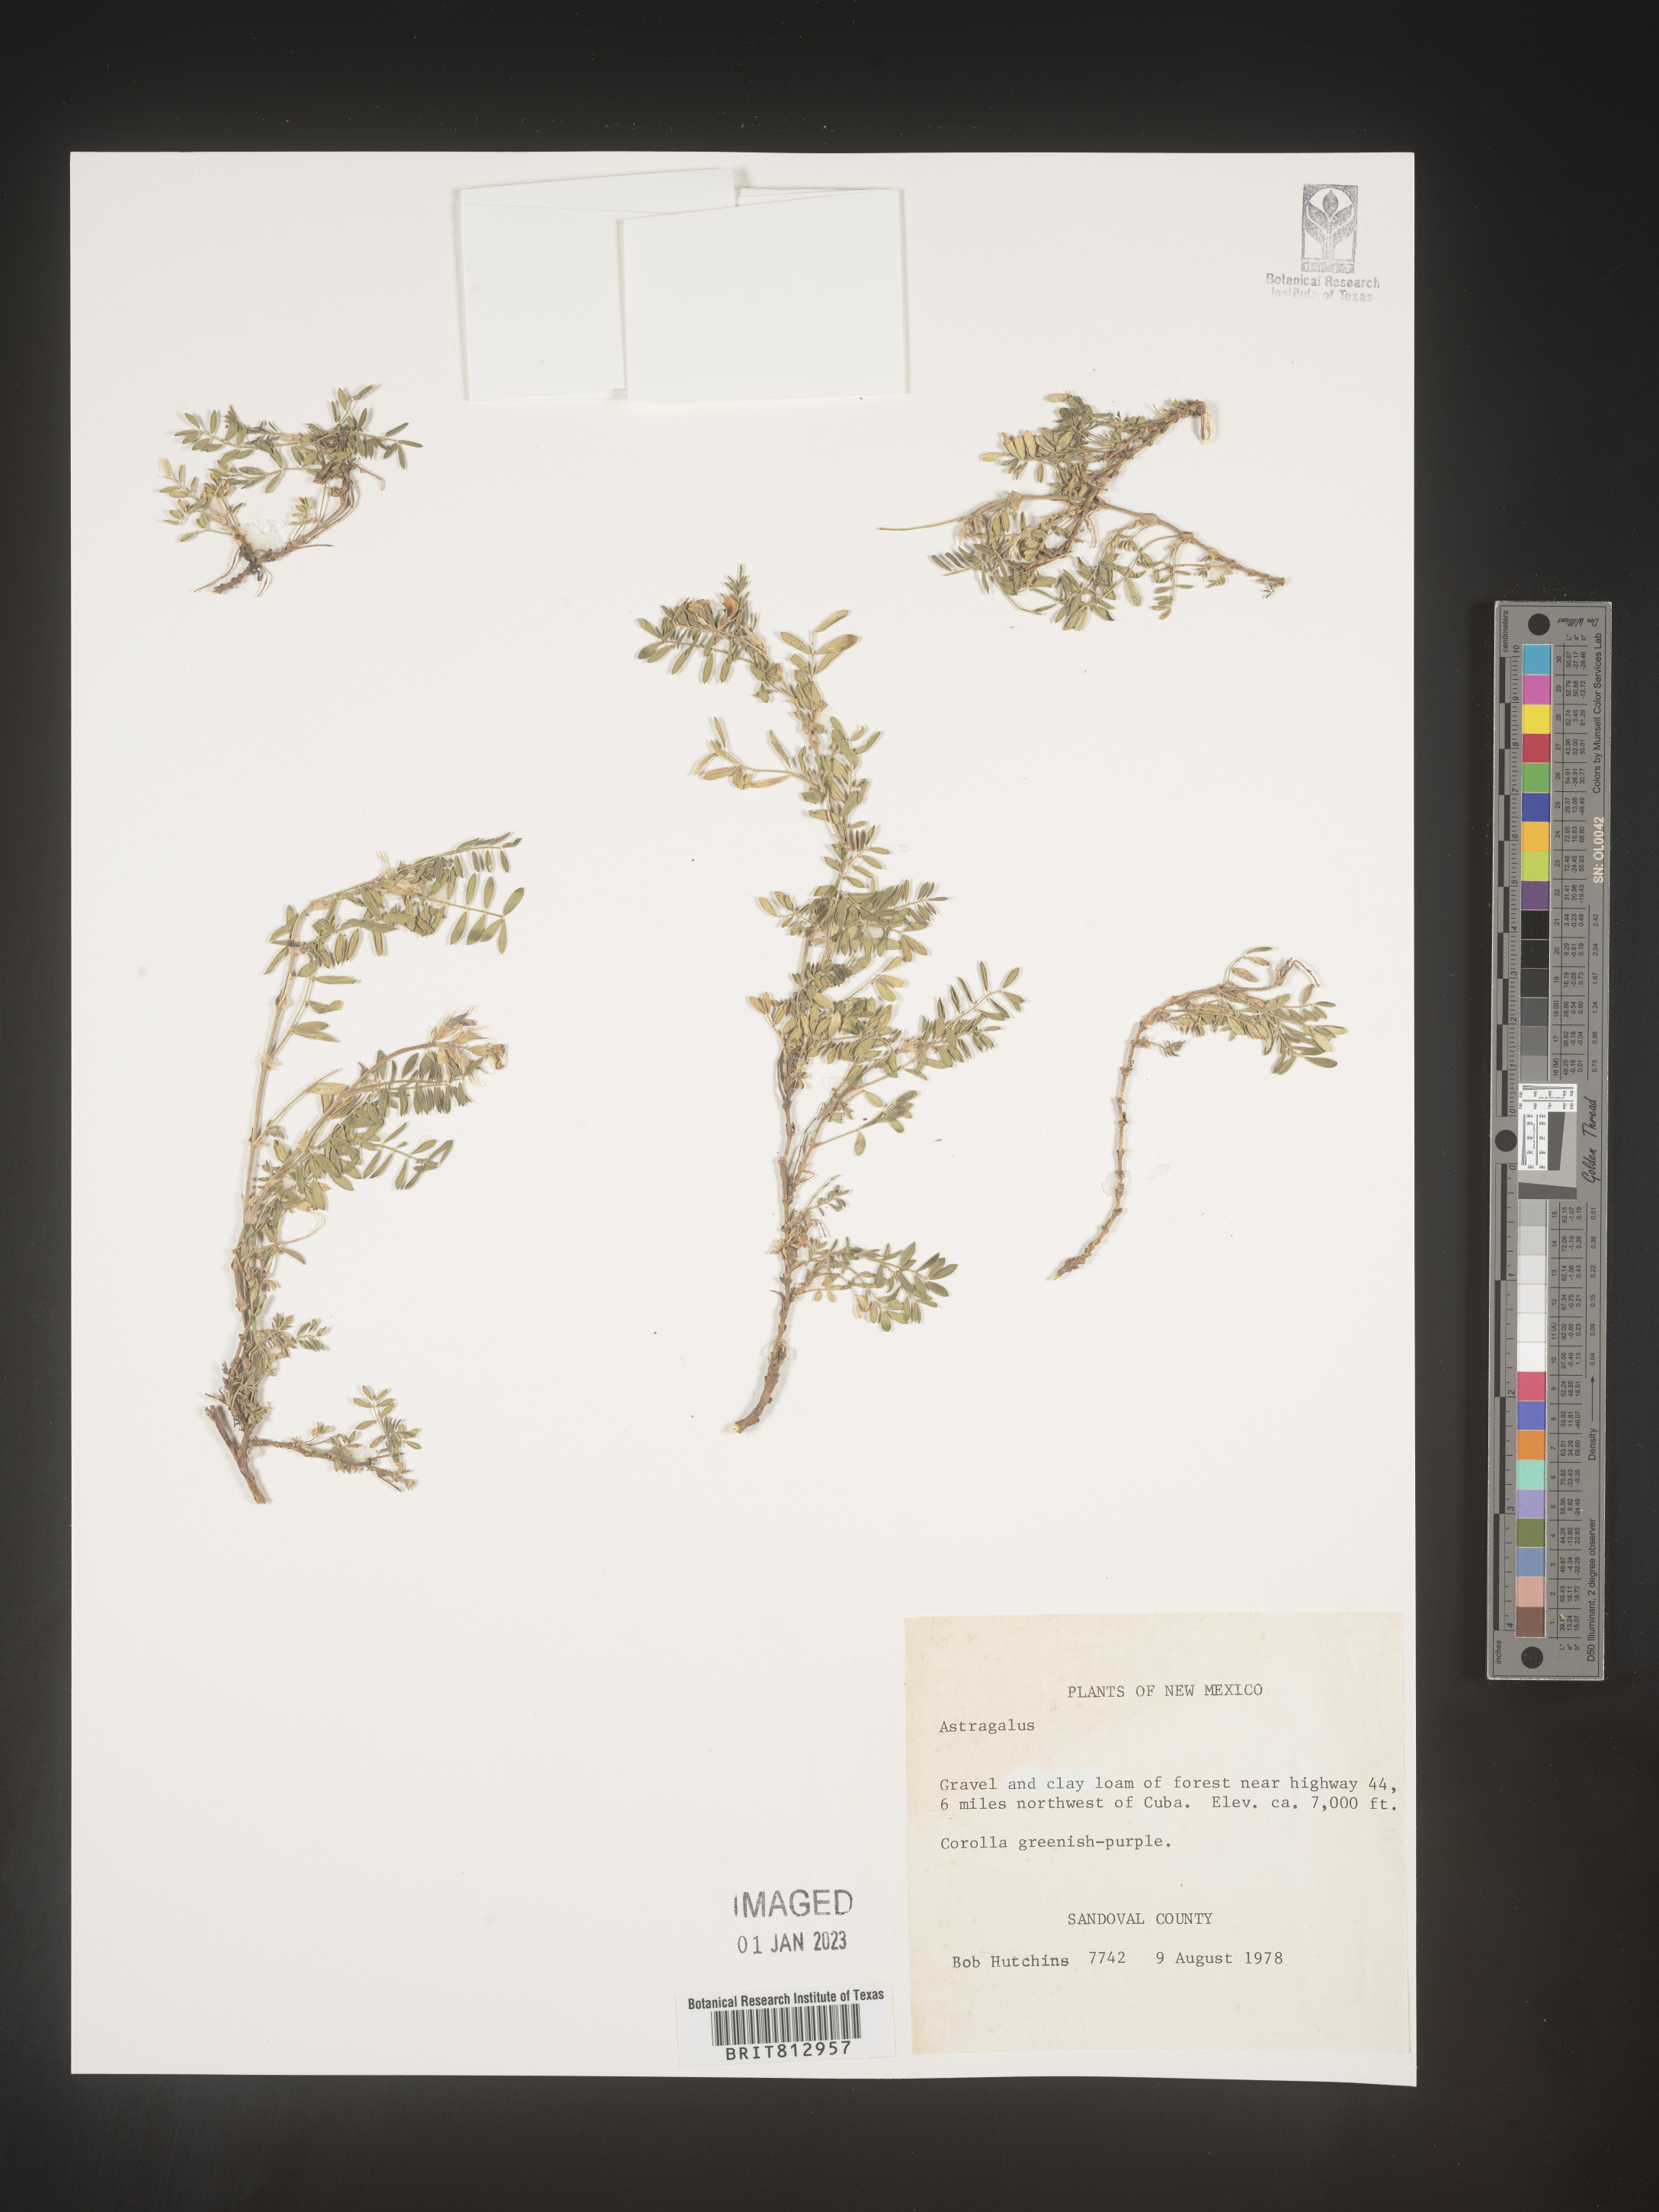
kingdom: Plantae
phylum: Tracheophyta
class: Magnoliopsida
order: Fabales
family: Fabaceae
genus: Astragalus
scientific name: Astragalus
